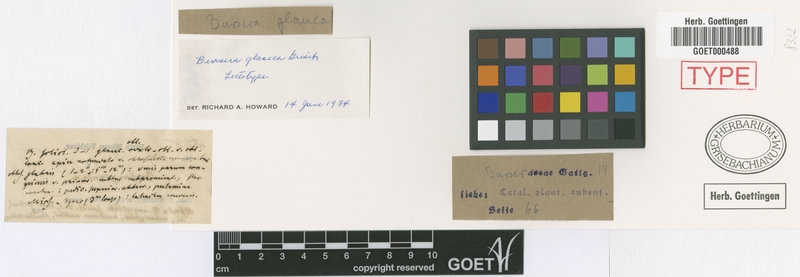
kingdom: Plantae
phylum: Tracheophyta
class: Magnoliopsida
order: Sapindales
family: Burseraceae
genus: Bursera
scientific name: Bursera glauca
